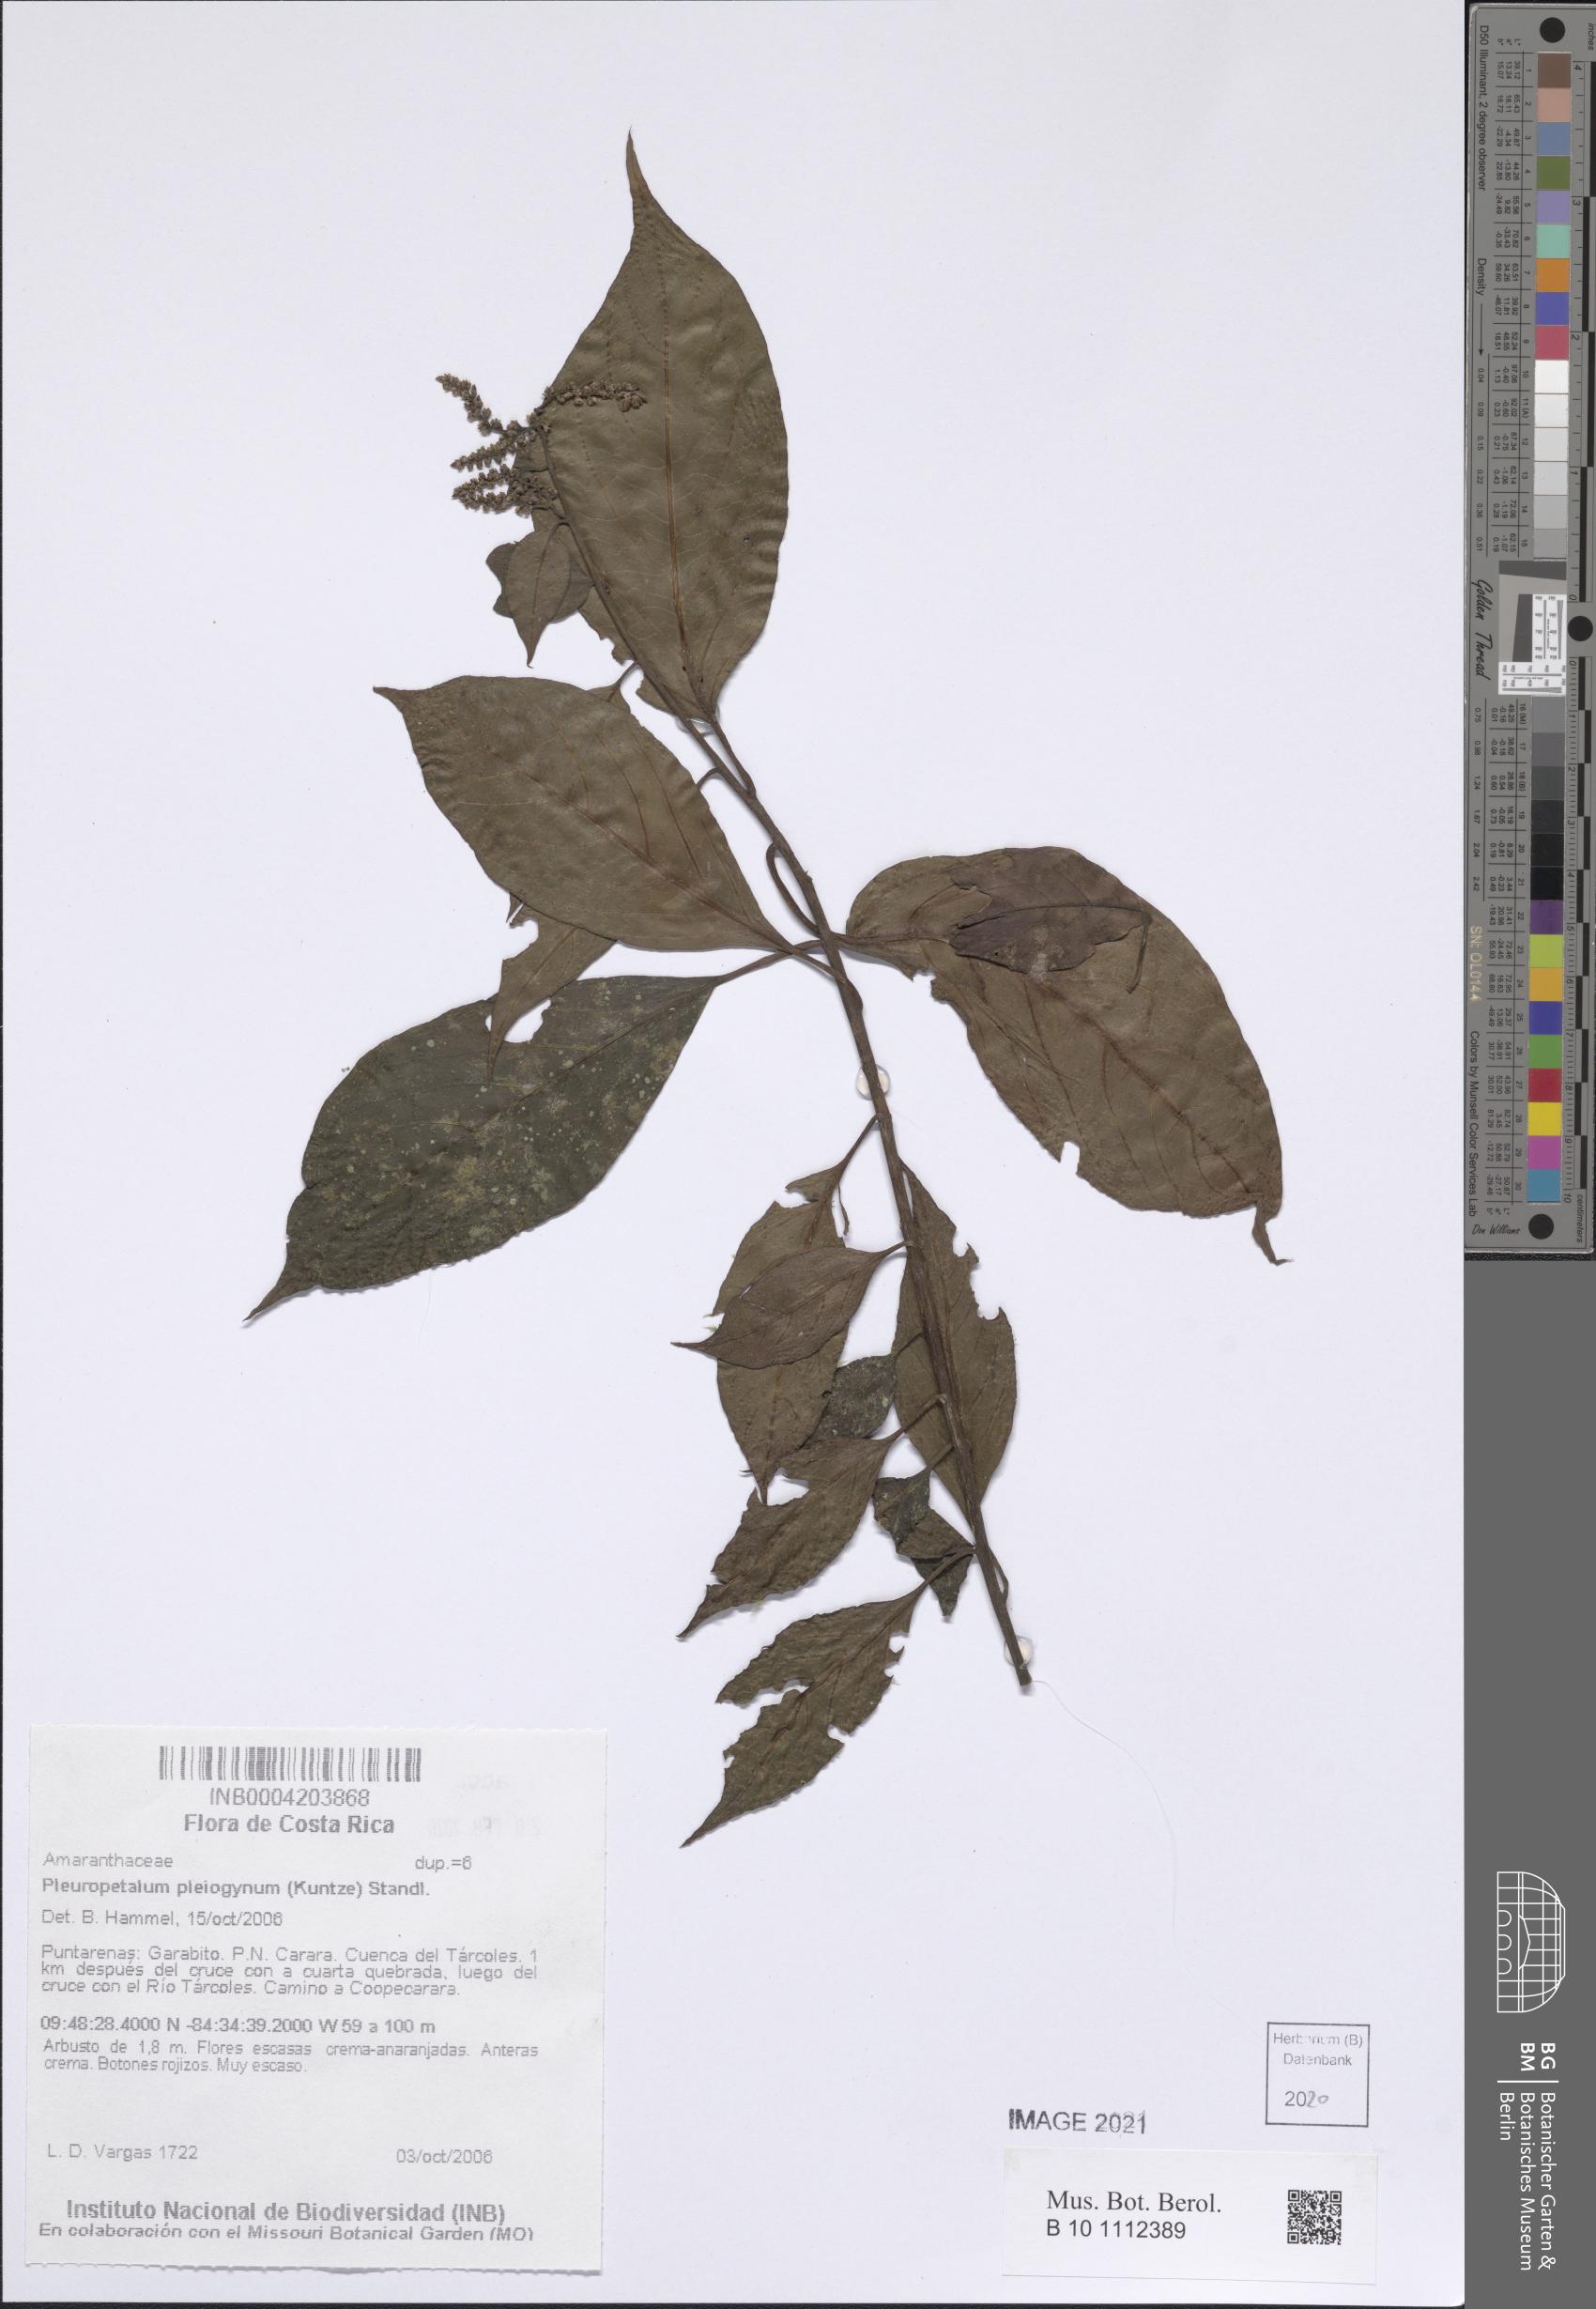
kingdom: Plantae
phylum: Tracheophyta
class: Magnoliopsida
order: Caryophyllales
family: Amaranthaceae
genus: Pleuropetalum
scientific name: Pleuropetalum pleiogynum
